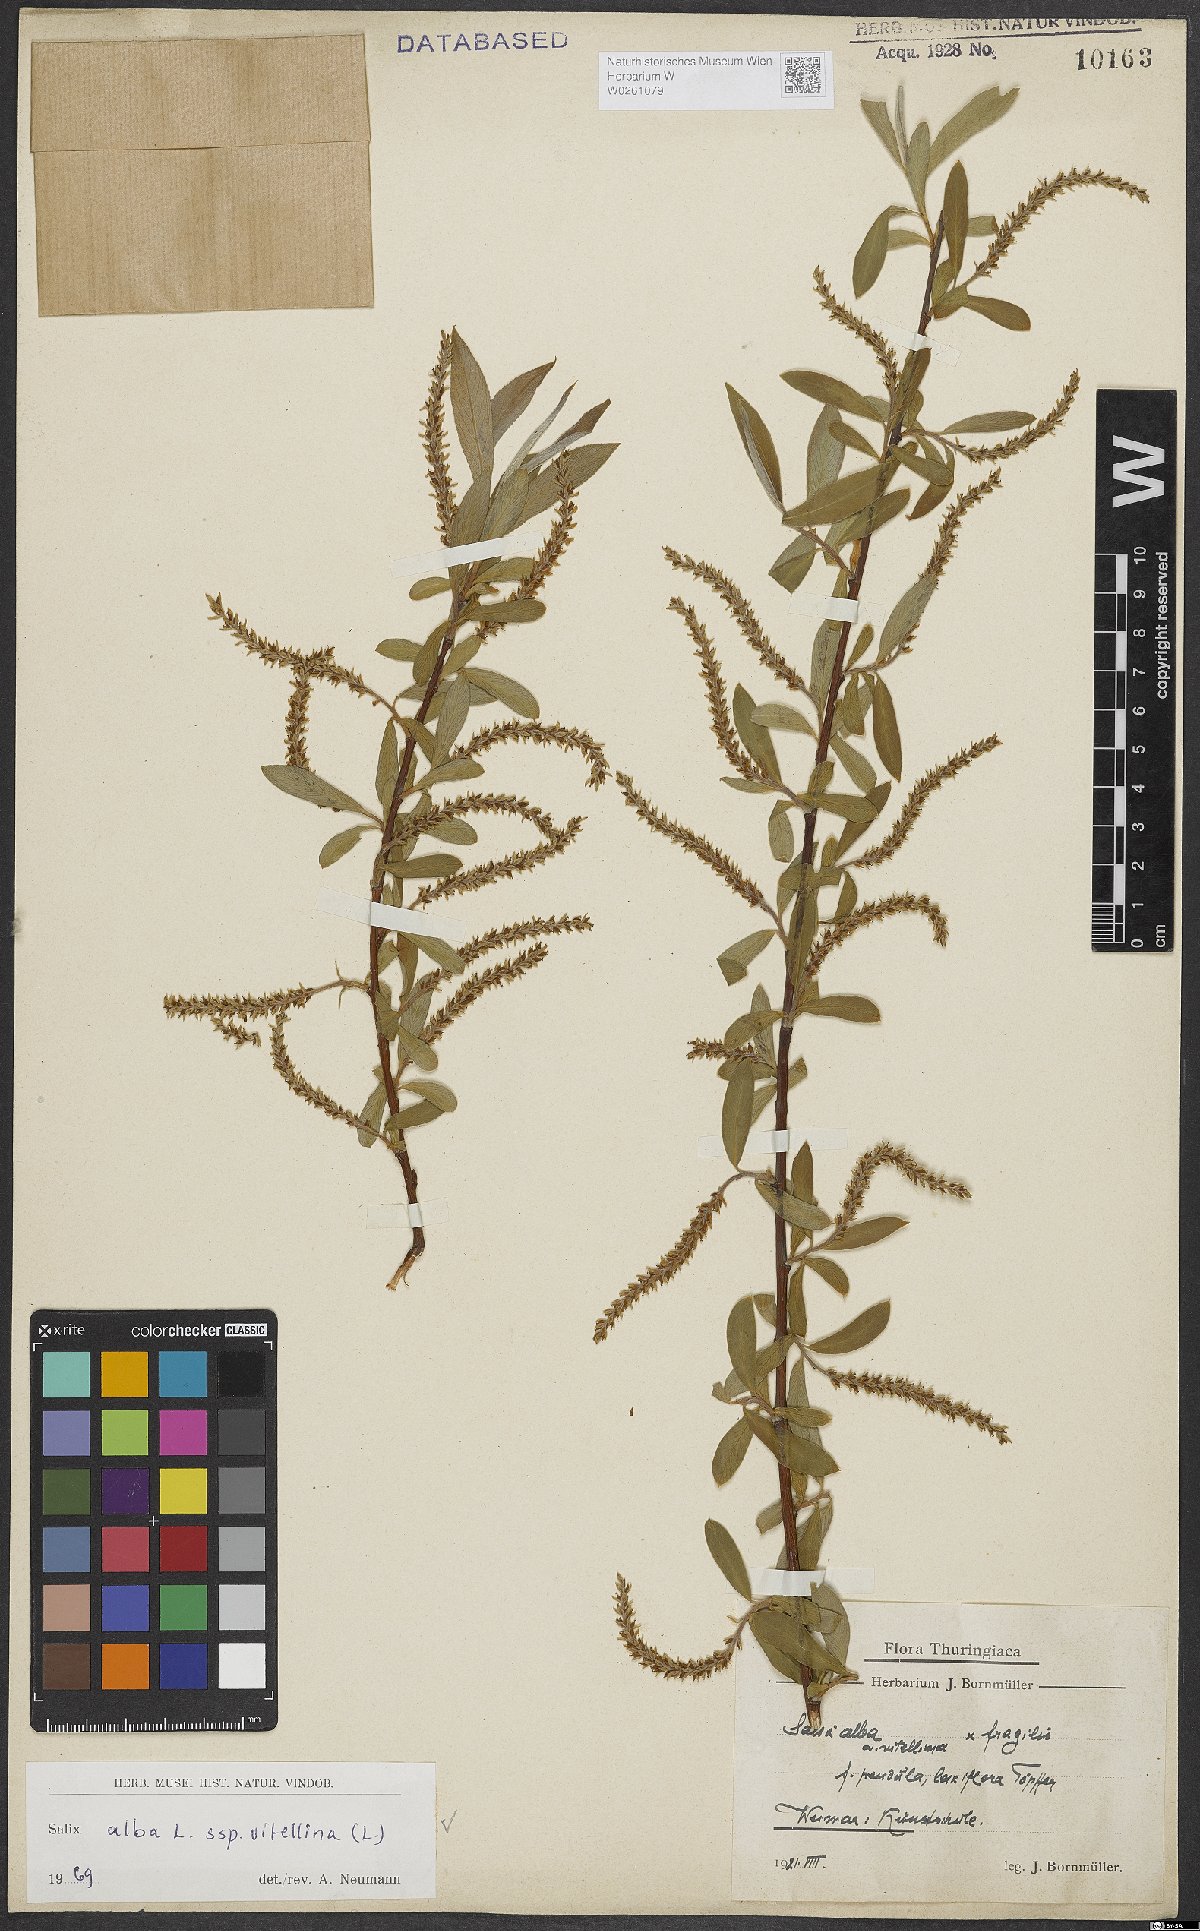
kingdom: Plantae
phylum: Tracheophyta
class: Magnoliopsida
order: Malpighiales
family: Salicaceae
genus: Salix
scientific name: Salix alba
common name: White willow
